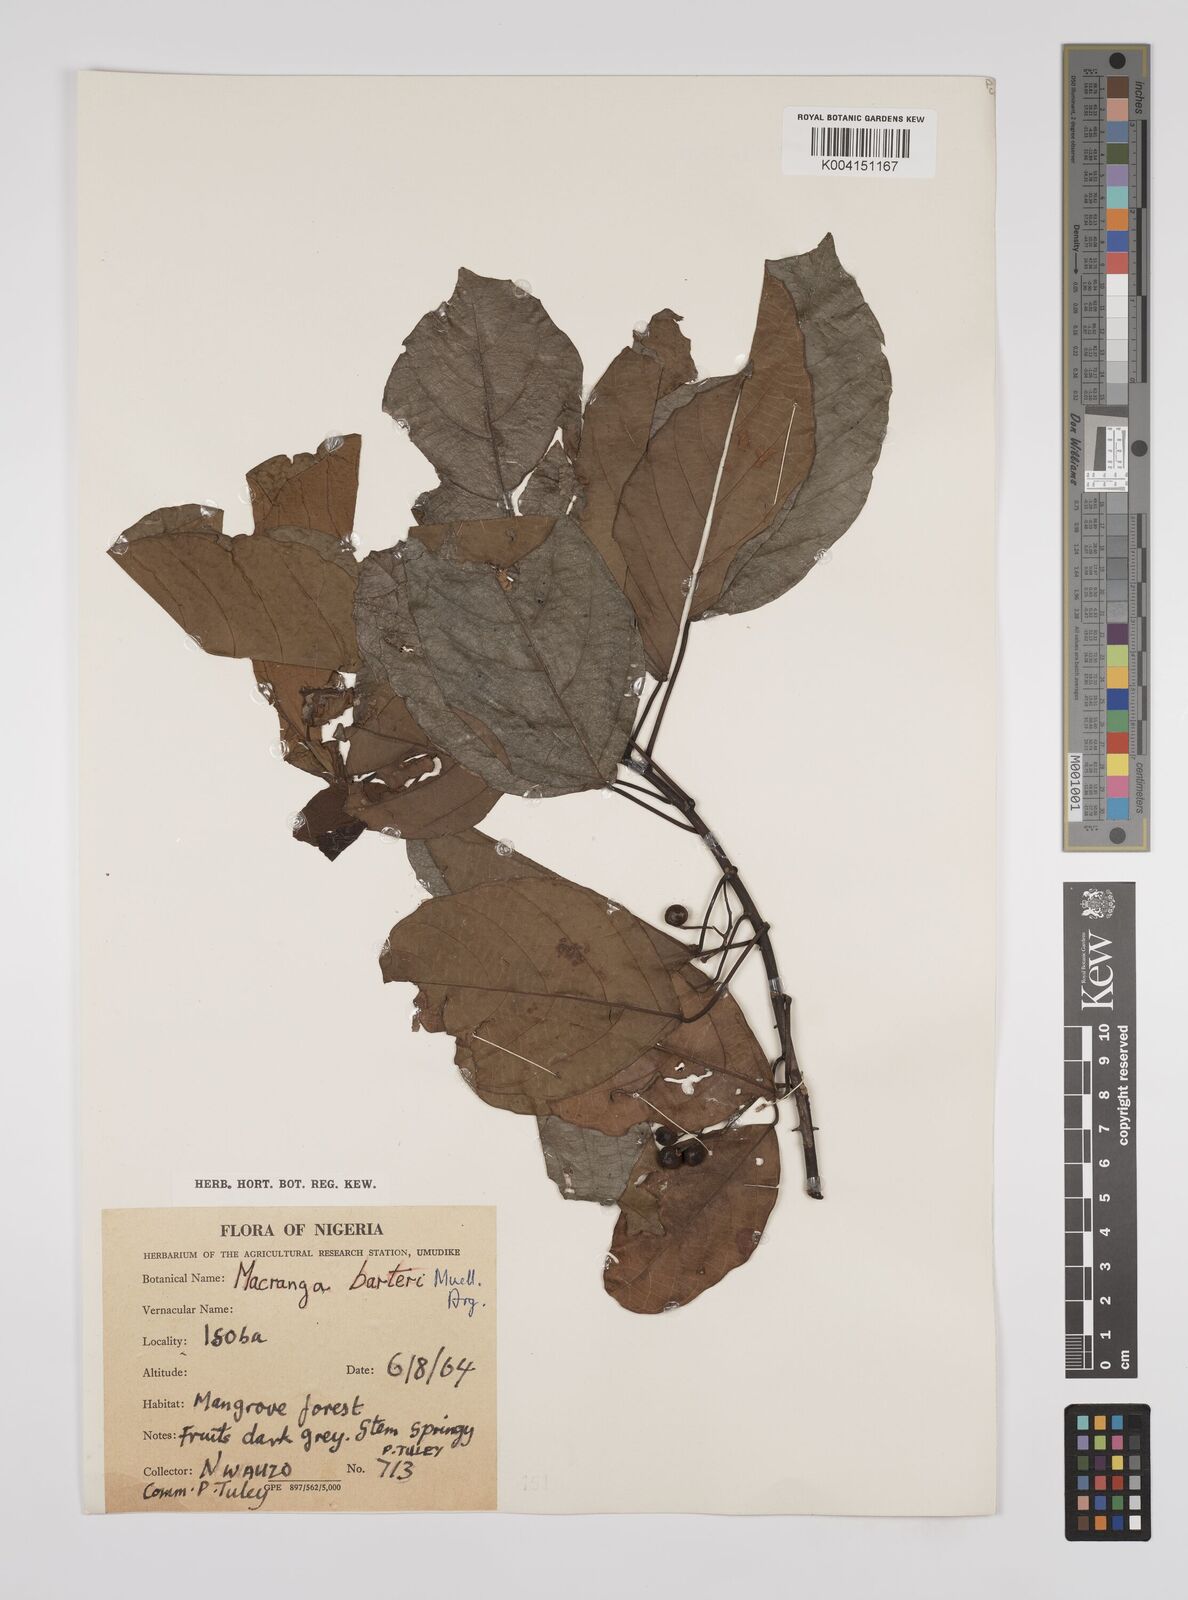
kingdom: Plantae
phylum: Tracheophyta
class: Magnoliopsida
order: Malpighiales
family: Euphorbiaceae
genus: Macaranga
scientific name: Macaranga barteri
